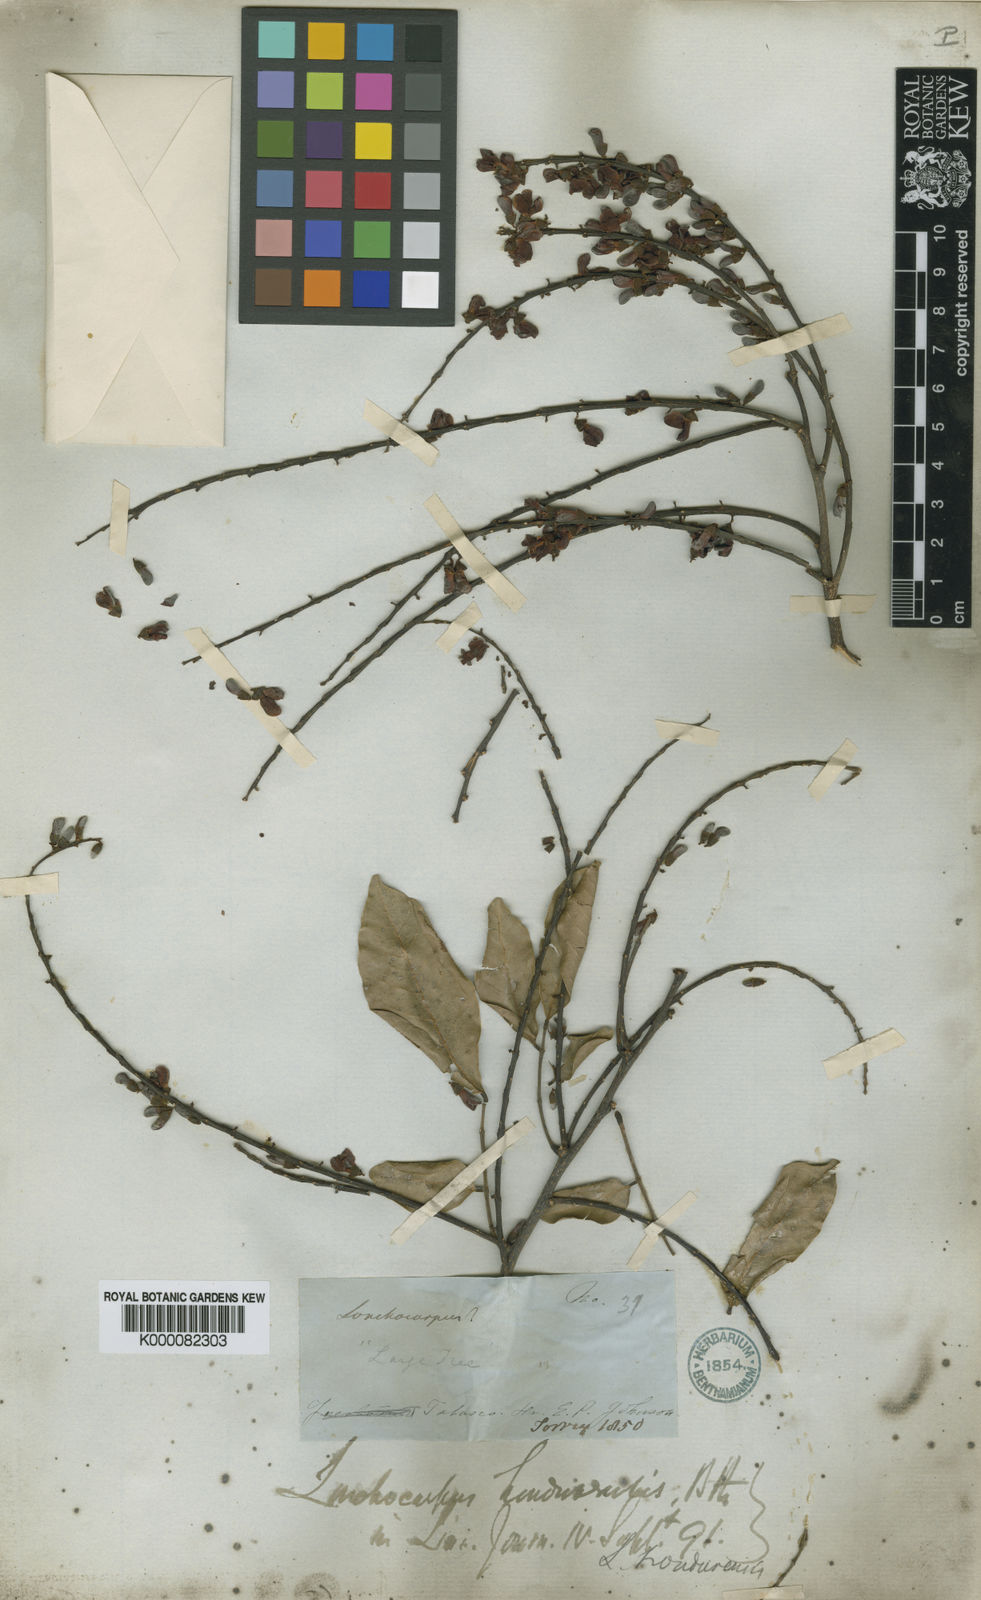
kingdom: Plantae
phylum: Tracheophyta
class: Magnoliopsida
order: Fabales
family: Fabaceae
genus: Lonchocarpus
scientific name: Lonchocarpus hondurensis
